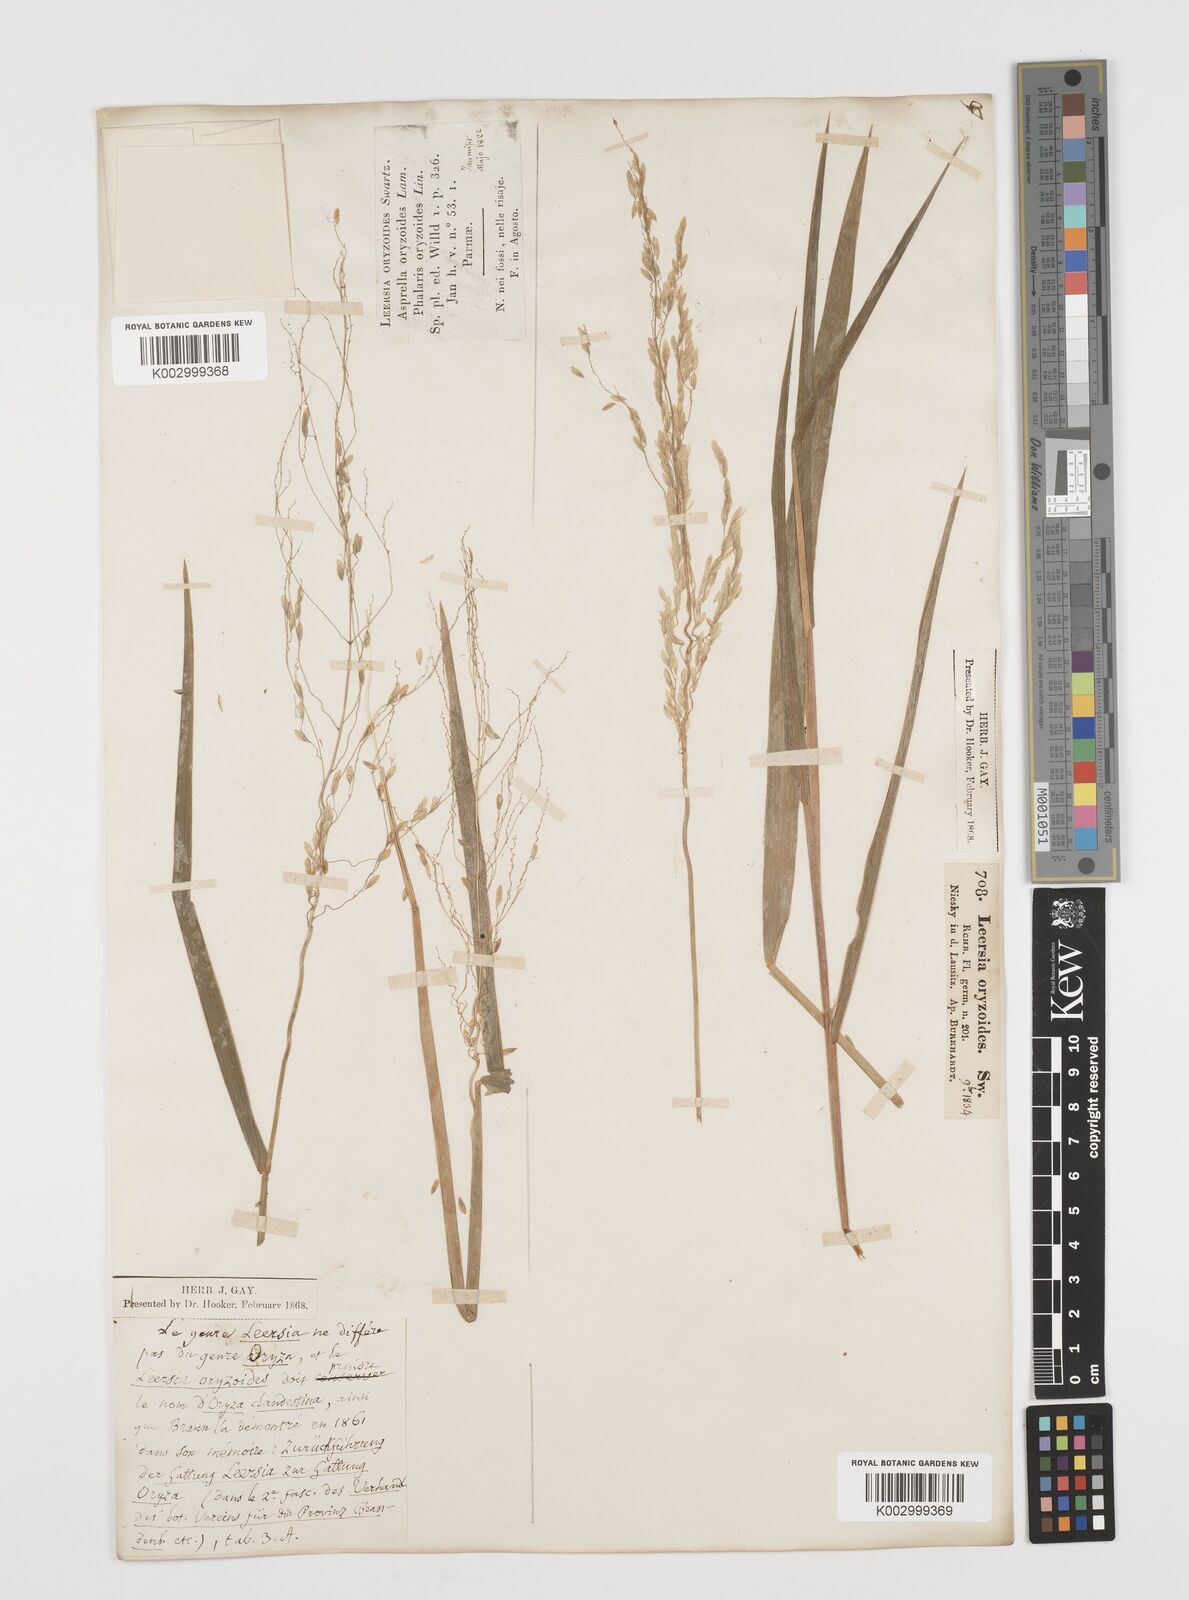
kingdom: Plantae
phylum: Tracheophyta
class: Liliopsida
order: Poales
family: Poaceae
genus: Leersia
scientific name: Leersia oryzoides
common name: Cut-grass
